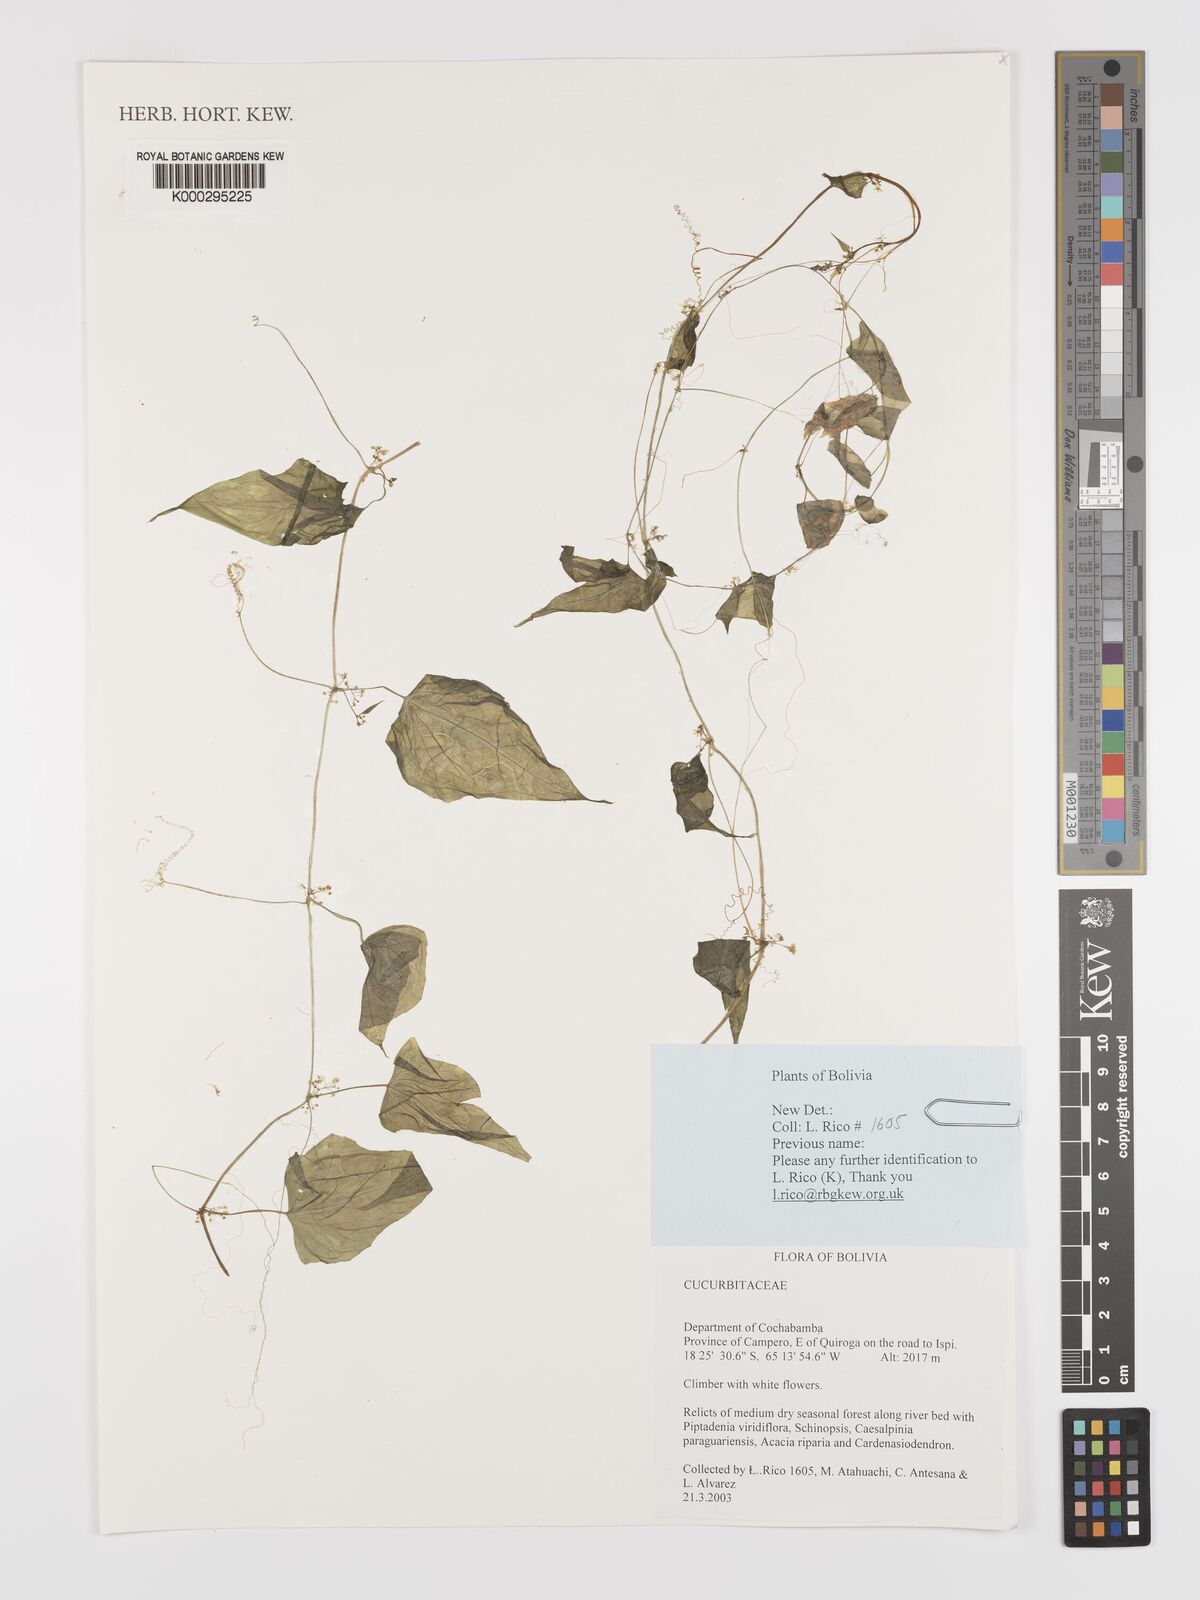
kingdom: Plantae
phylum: Tracheophyta
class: Magnoliopsida
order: Cucurbitales
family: Cucurbitaceae
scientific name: Cucurbitaceae
